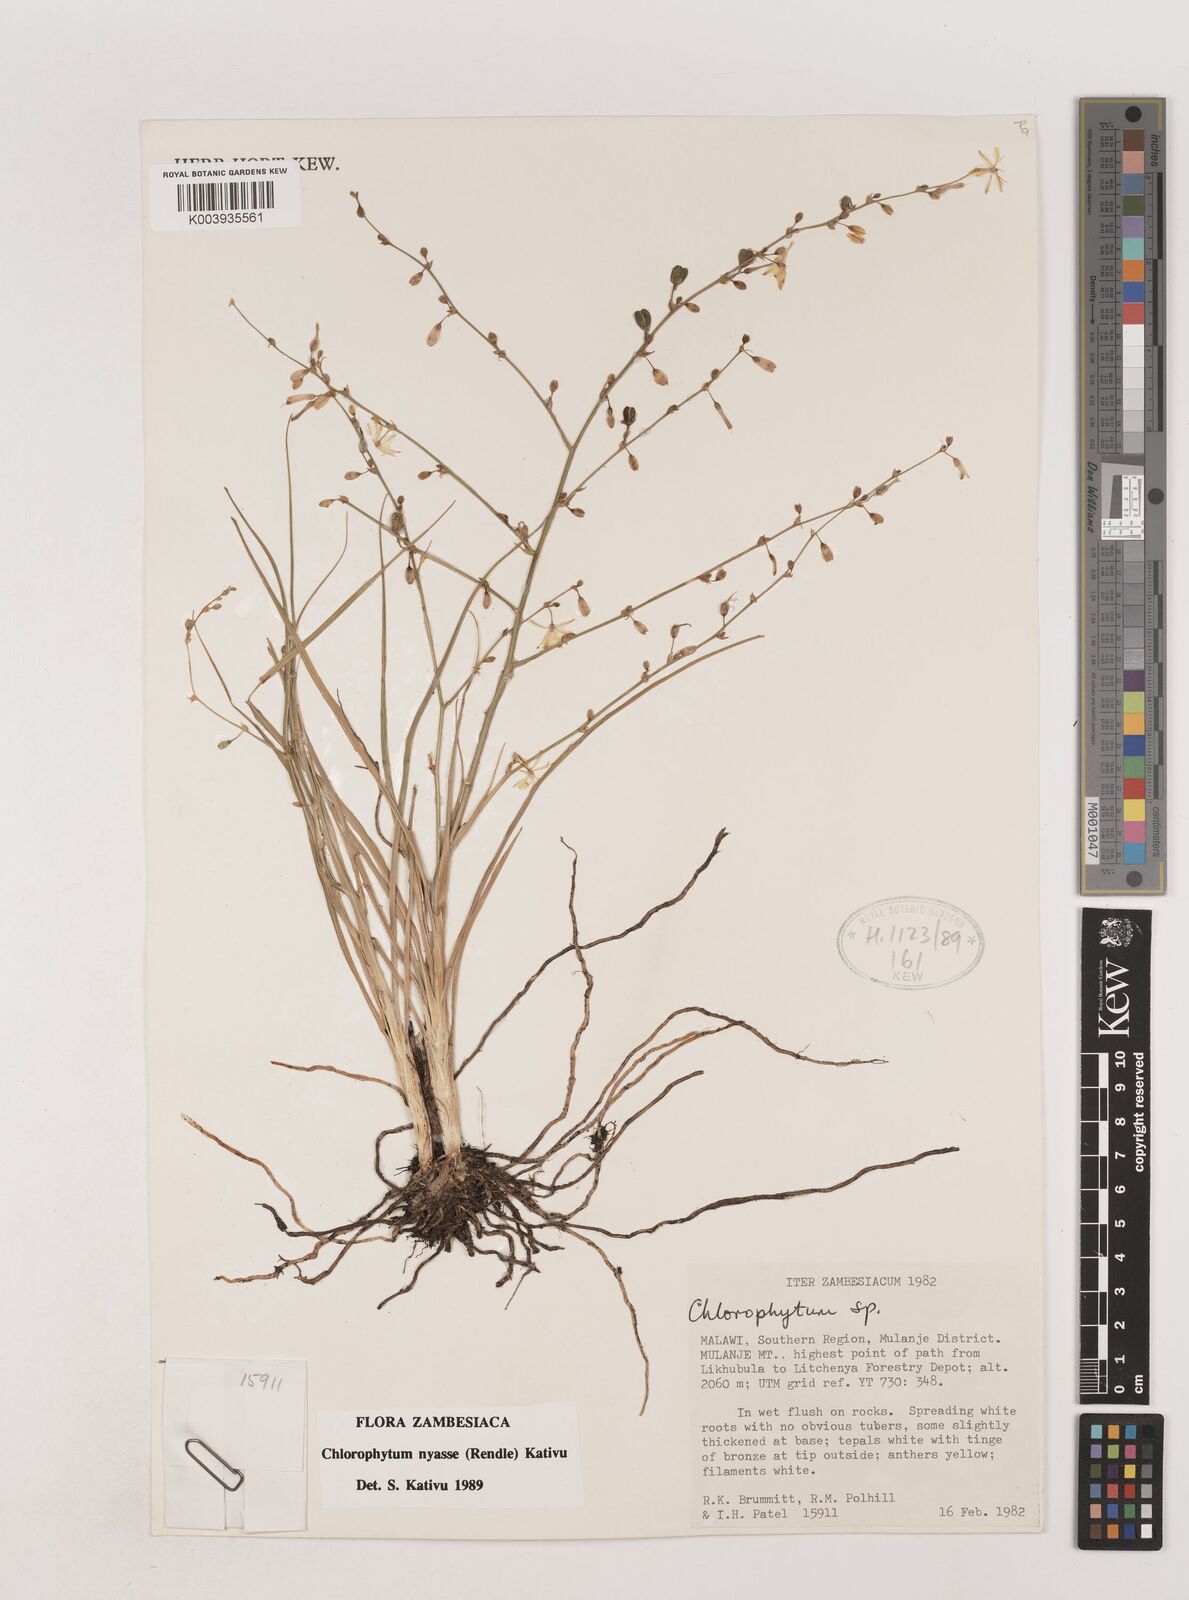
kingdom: Plantae
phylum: Tracheophyta
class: Liliopsida
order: Asparagales
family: Asparagaceae
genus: Chlorophytum
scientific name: Chlorophytum nyasae
